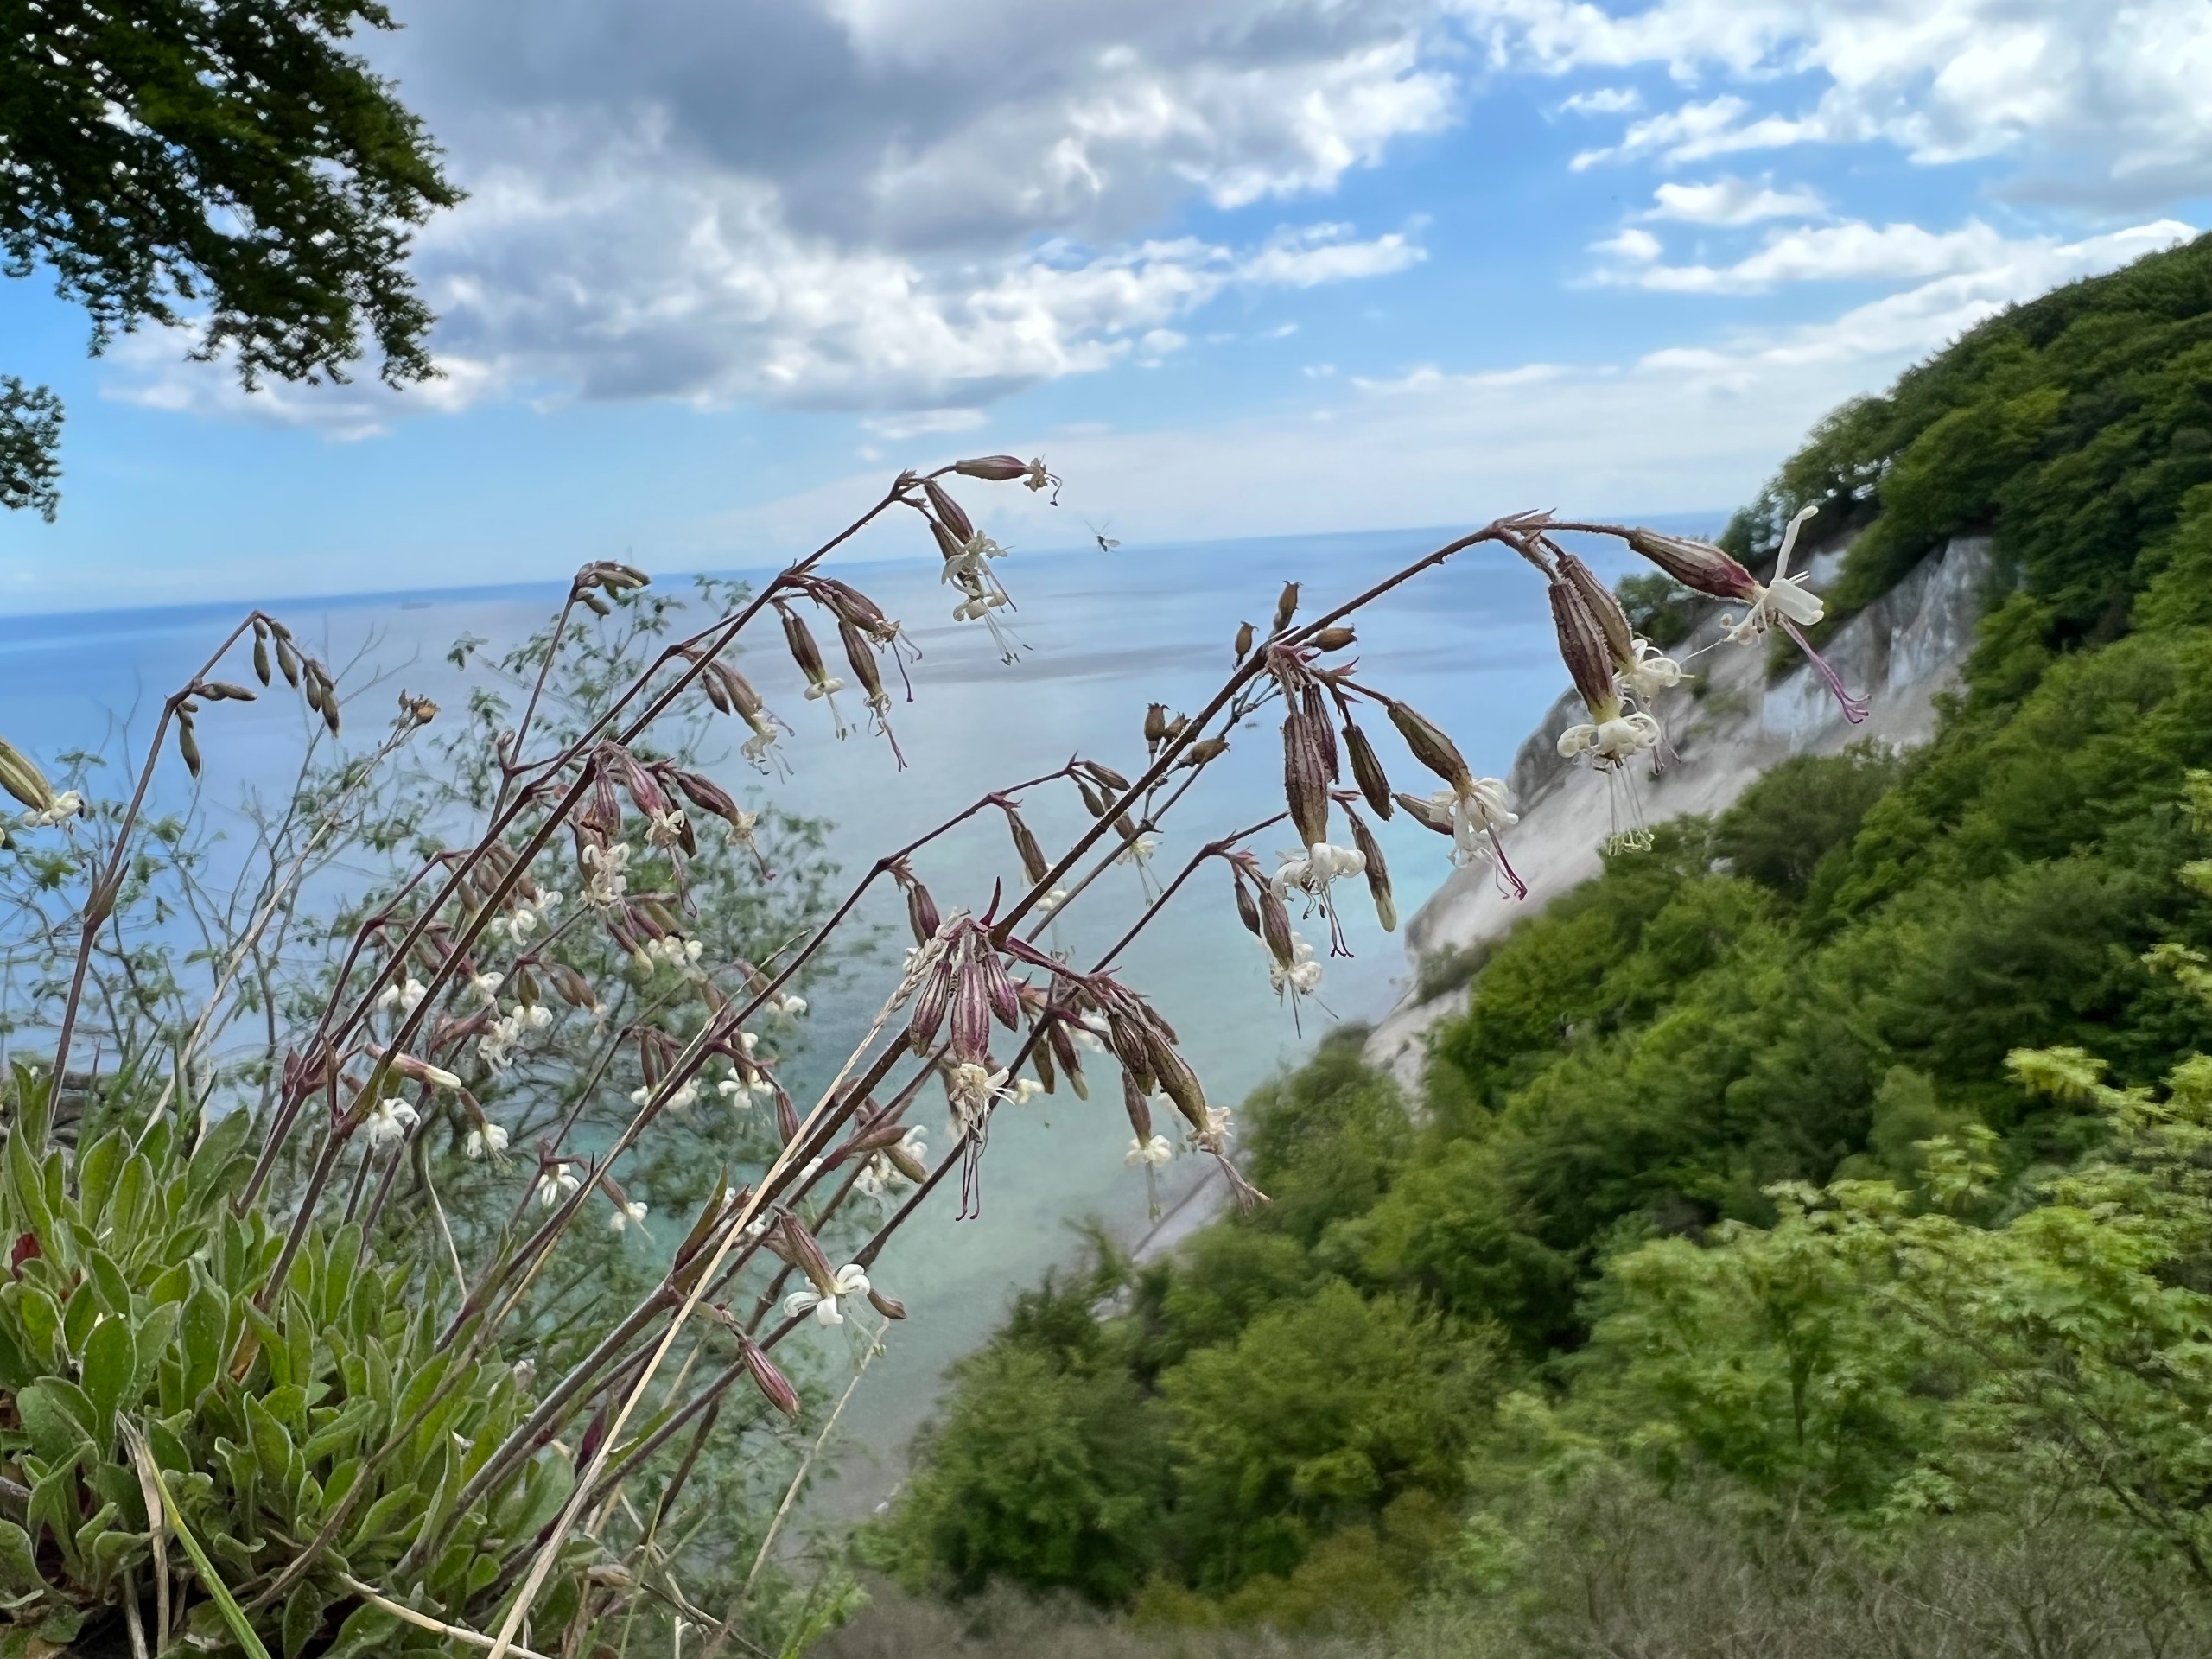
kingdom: Plantae
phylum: Tracheophyta
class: Magnoliopsida
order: Caryophyllales
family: Caryophyllaceae
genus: Silene
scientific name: Silene nutans
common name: Nikkende limurt
